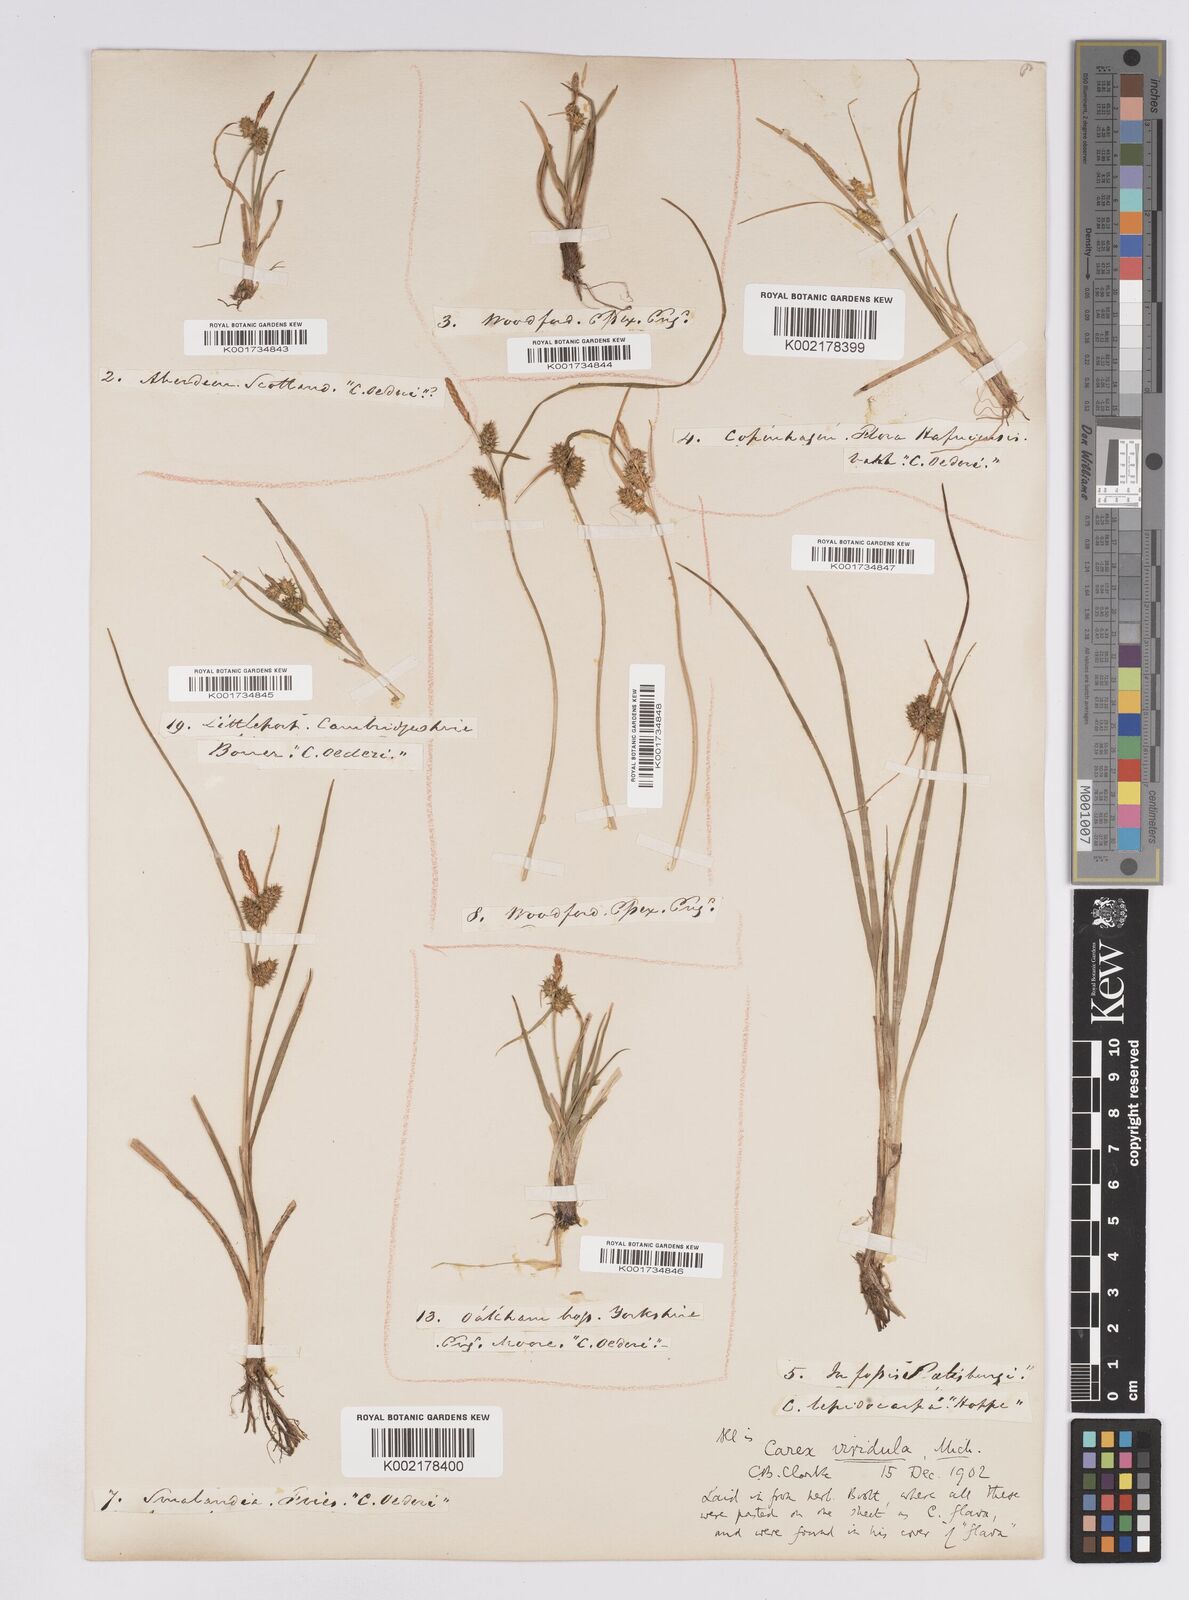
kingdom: Plantae
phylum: Tracheophyta
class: Liliopsida
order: Poales
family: Cyperaceae
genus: Carex
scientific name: Carex demissa
